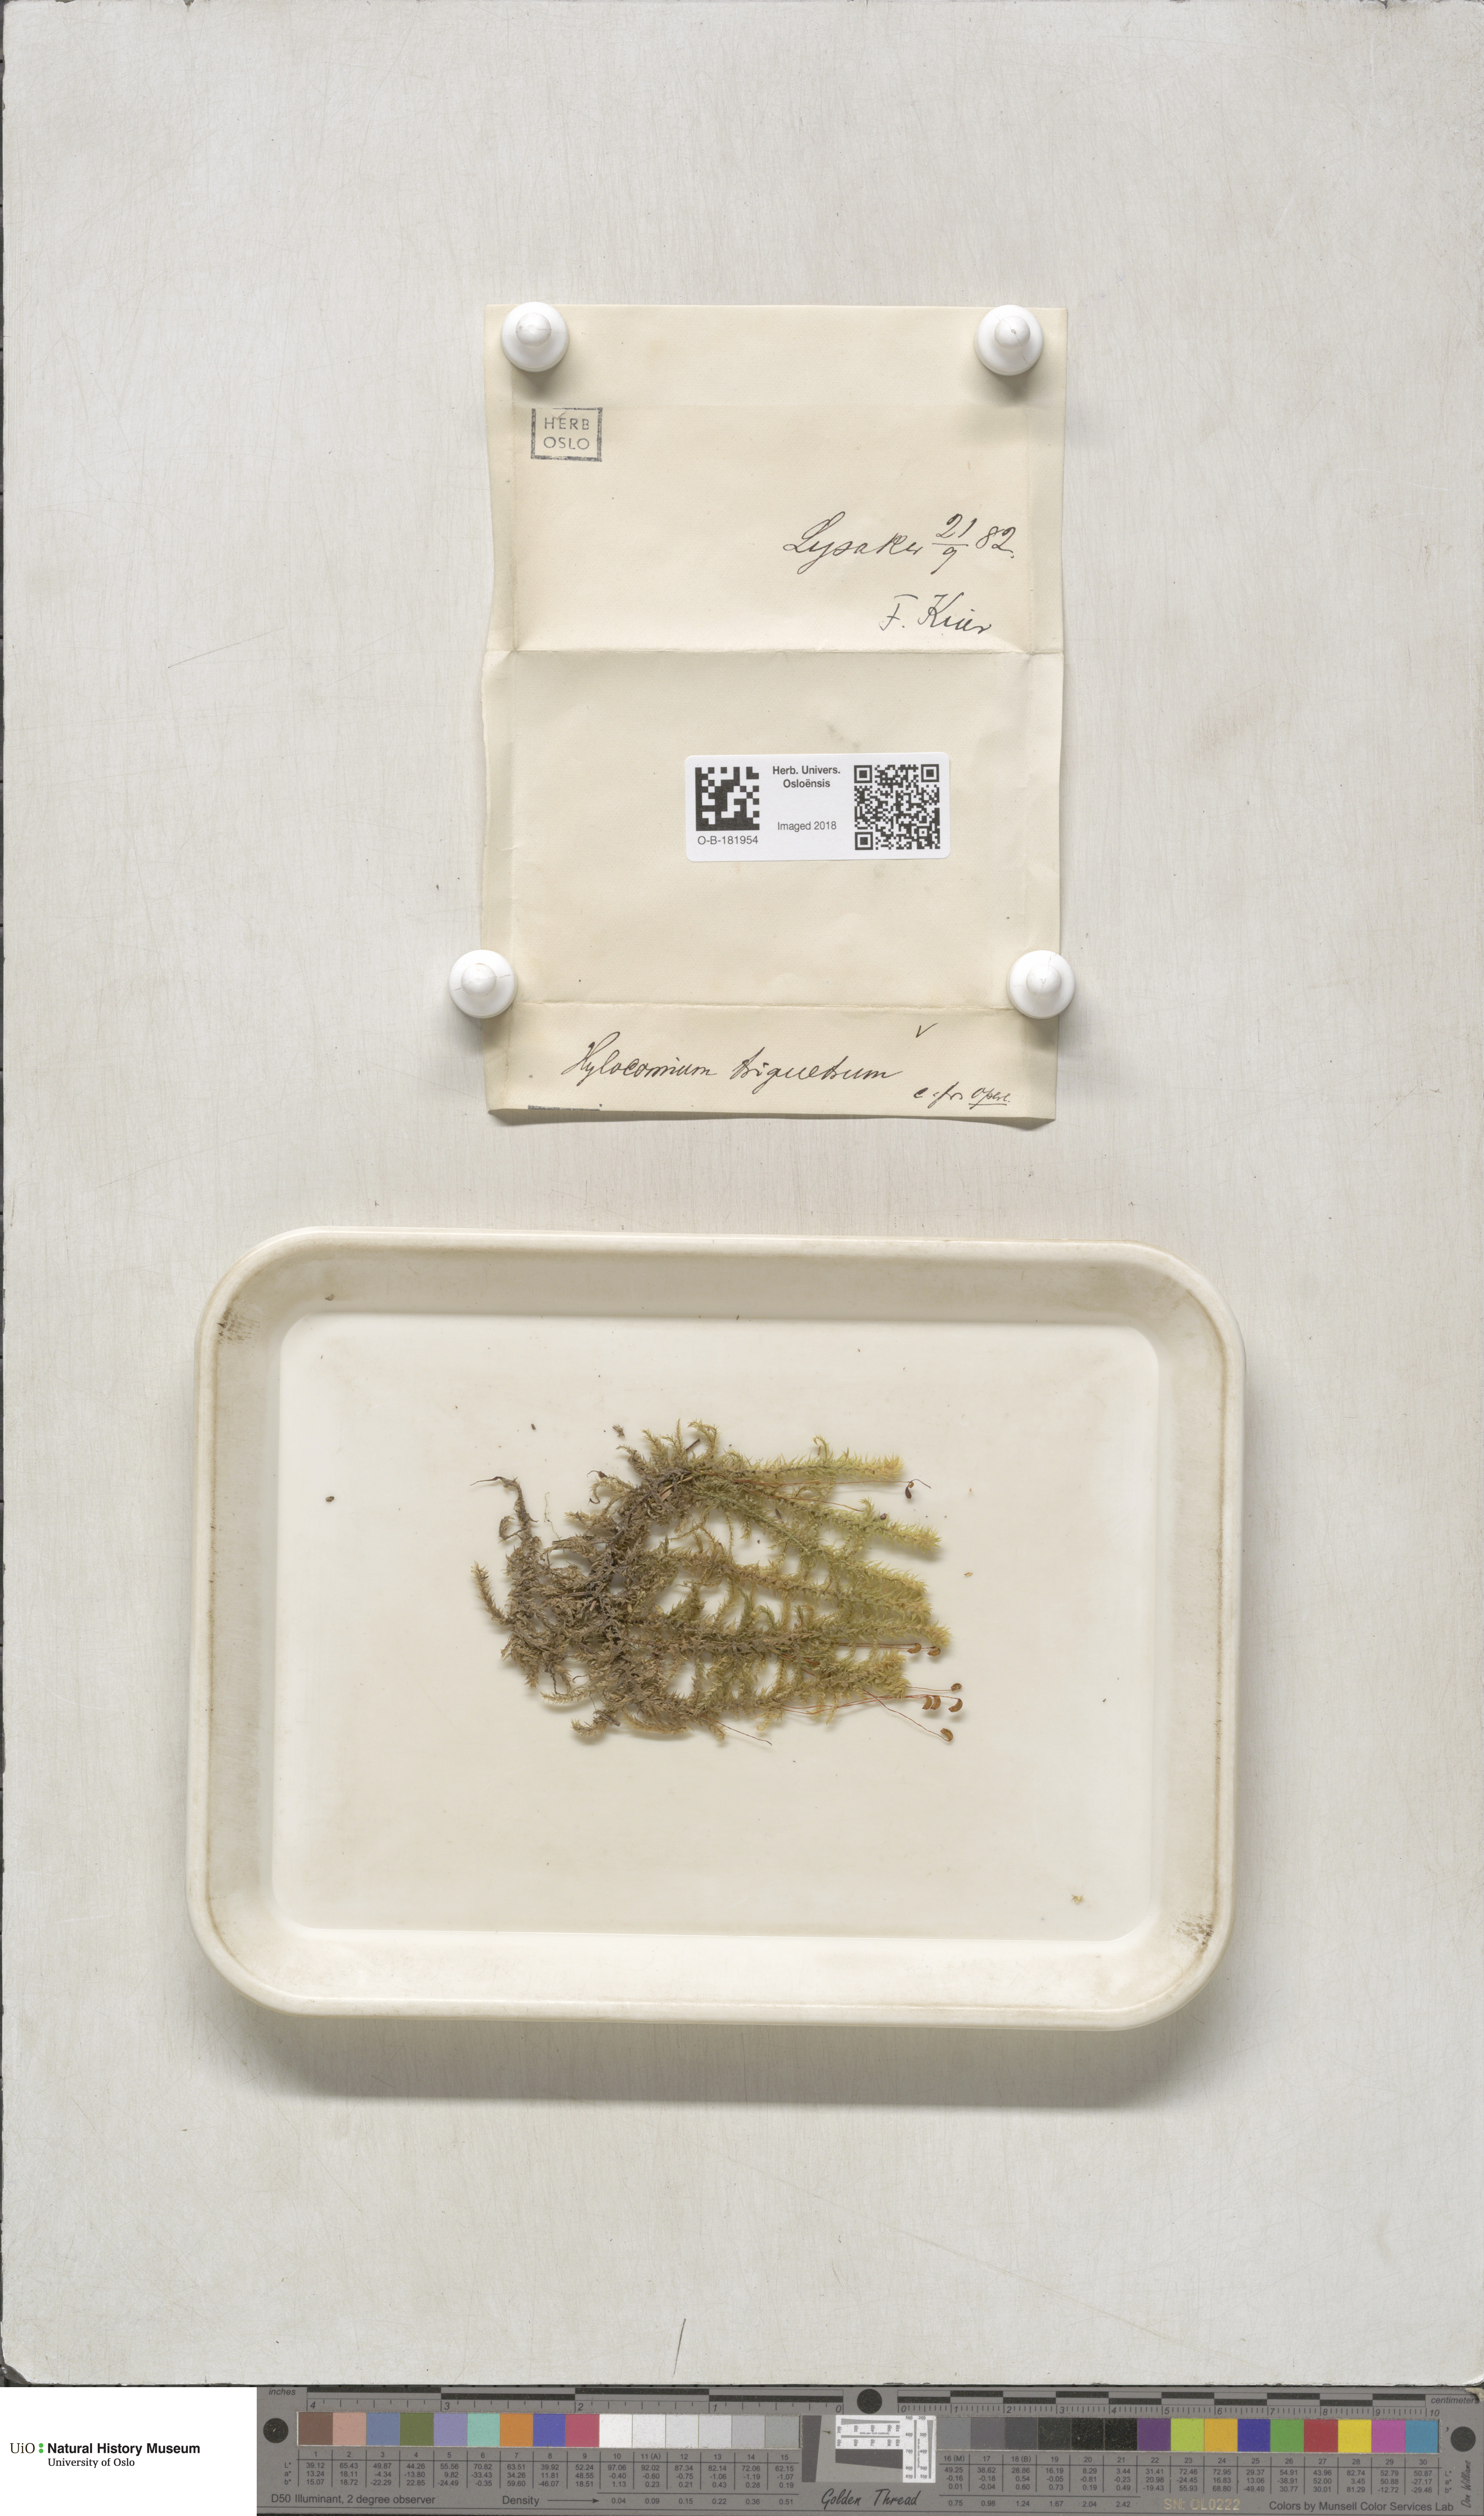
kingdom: Plantae
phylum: Bryophyta
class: Bryopsida
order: Hypnales
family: Hylocomiaceae
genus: Hylocomiadelphus
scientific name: Hylocomiadelphus triquetrus
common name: Rough goose neck moss
